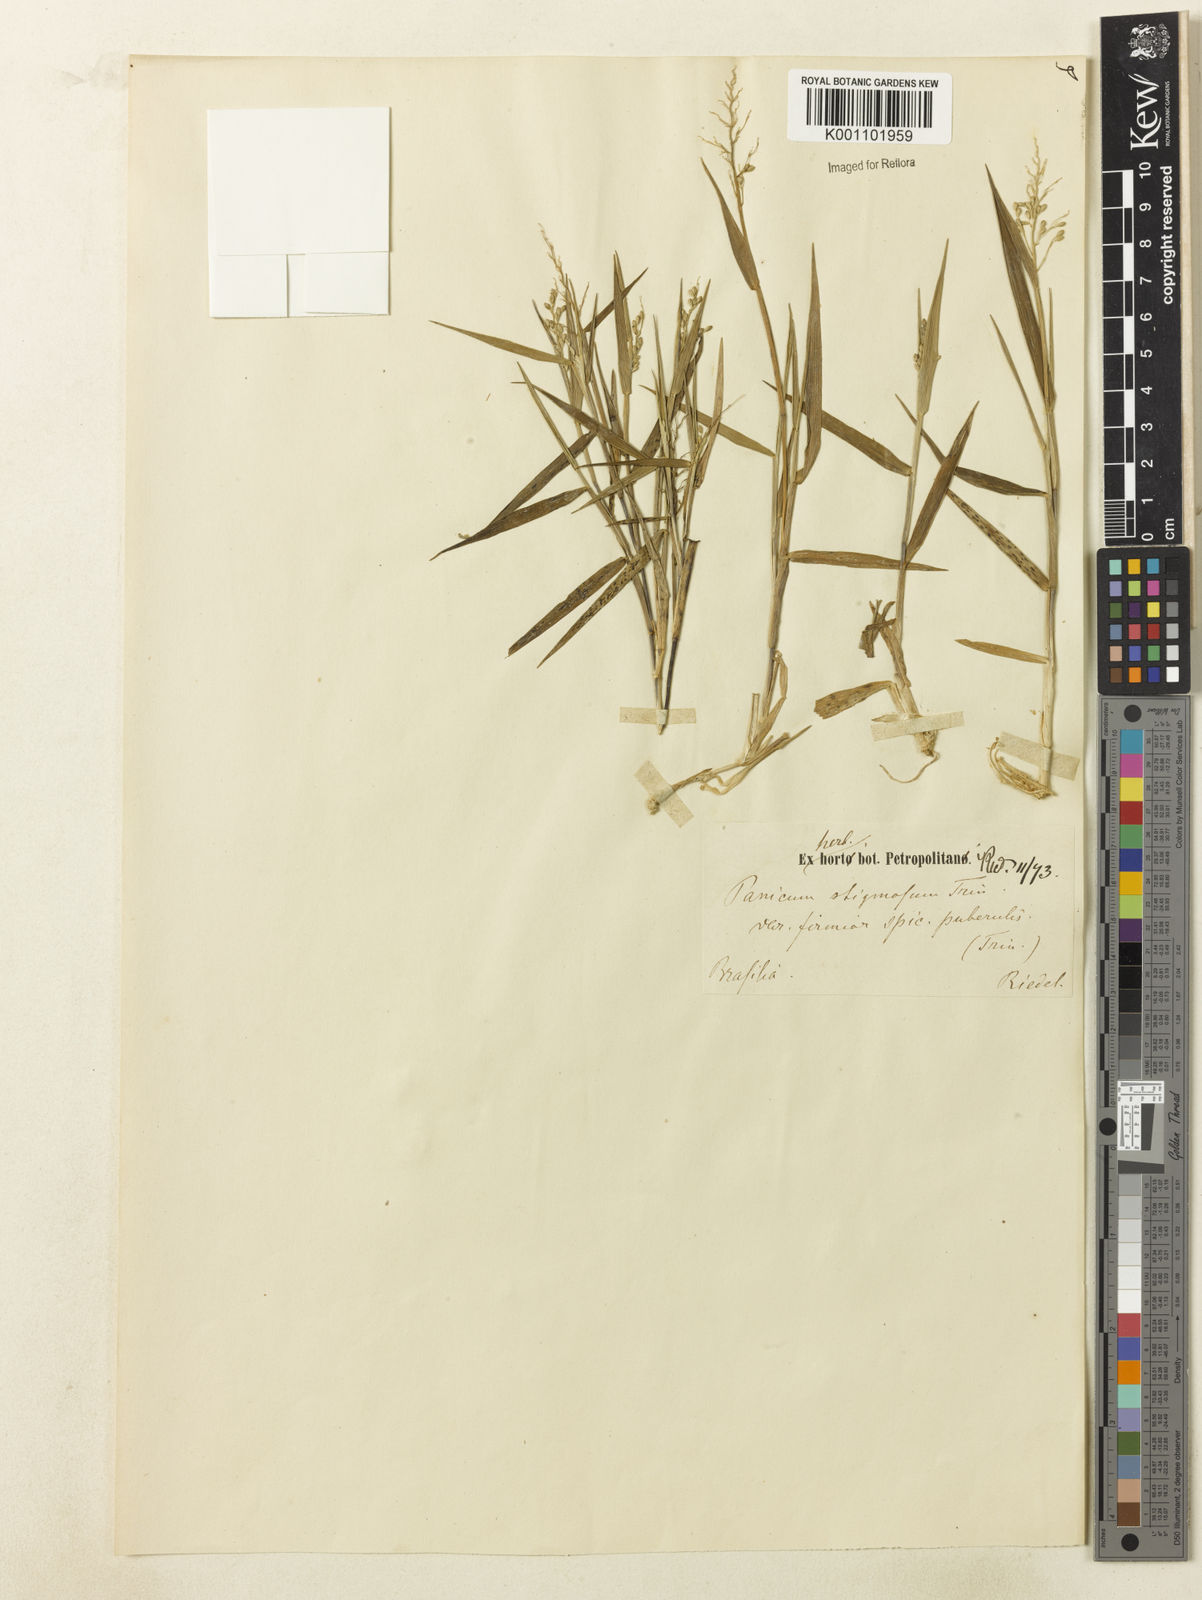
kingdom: Plantae
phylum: Tracheophyta
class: Liliopsida
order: Poales
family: Poaceae
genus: Dichanthelium
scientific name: Dichanthelium sabulorum
